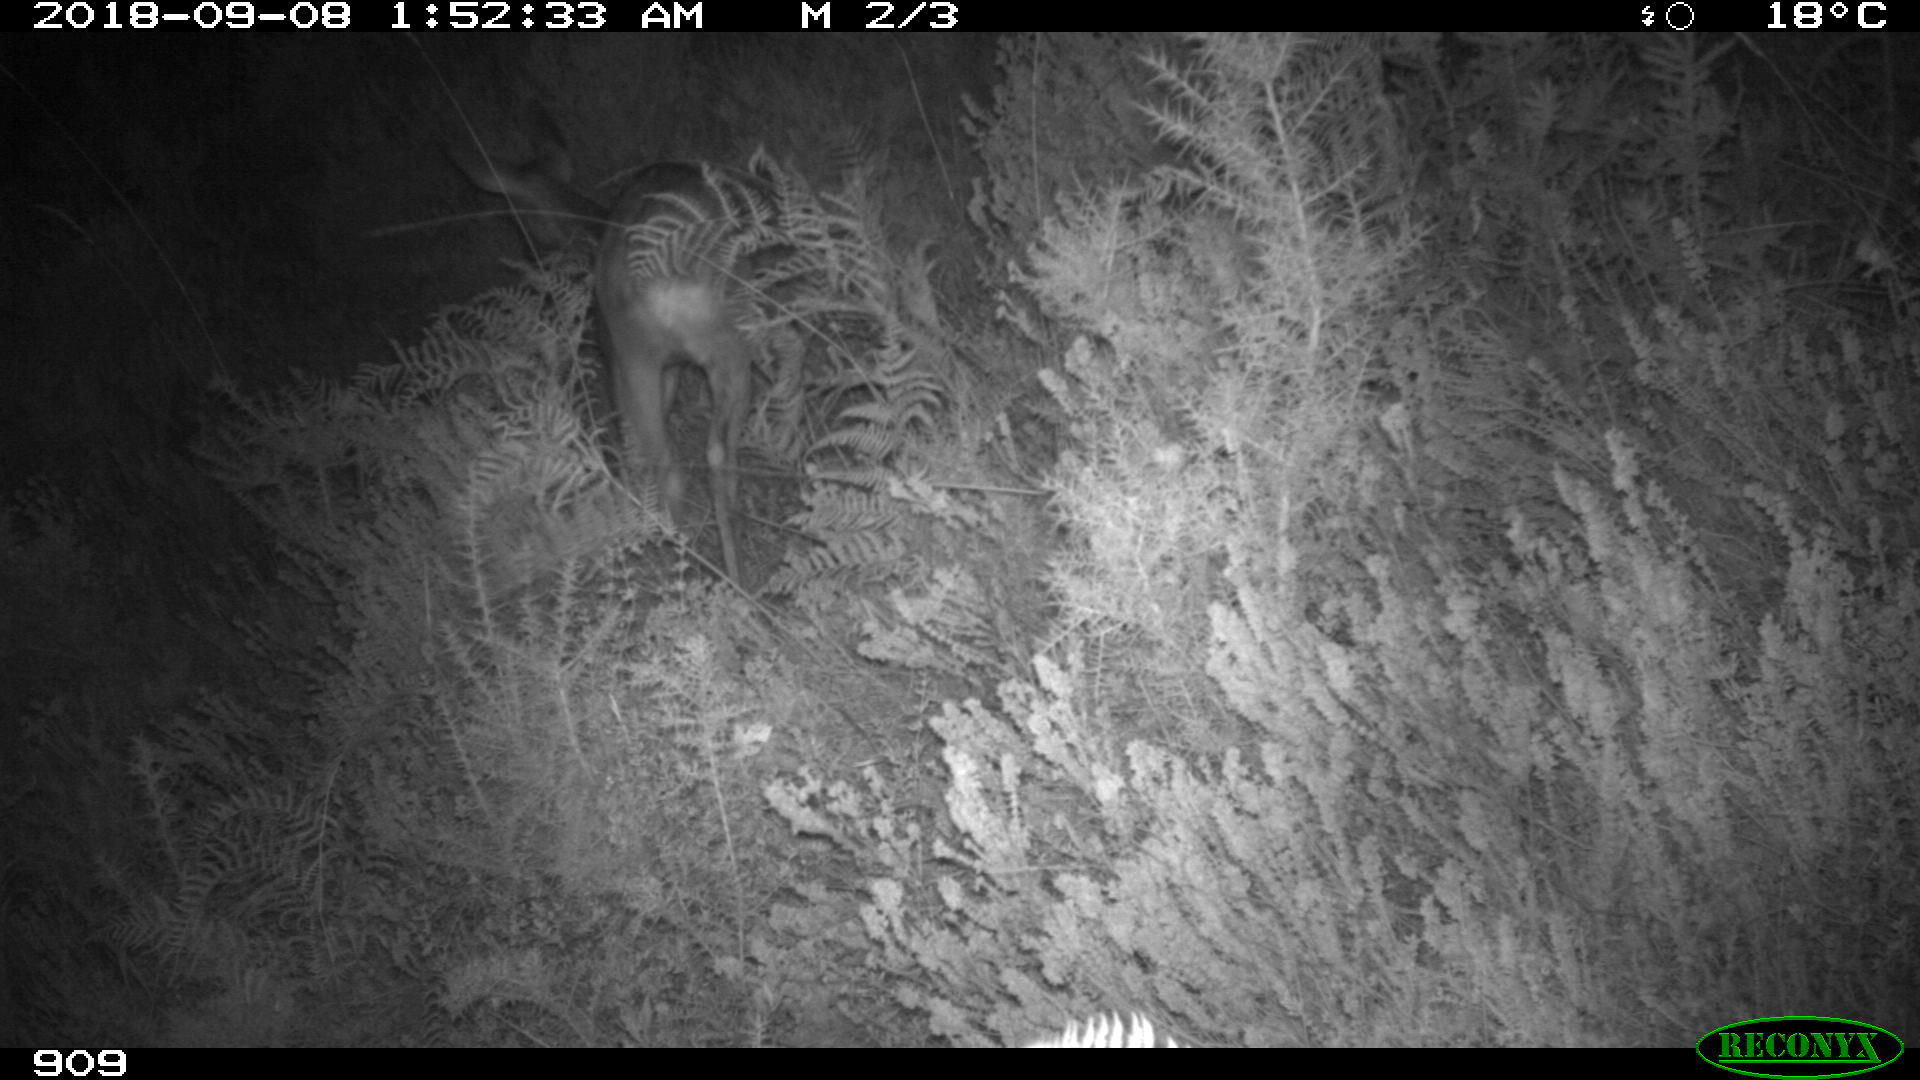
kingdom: Animalia
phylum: Chordata
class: Mammalia
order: Artiodactyla
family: Cervidae
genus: Capreolus
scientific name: Capreolus capreolus
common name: Western roe deer
